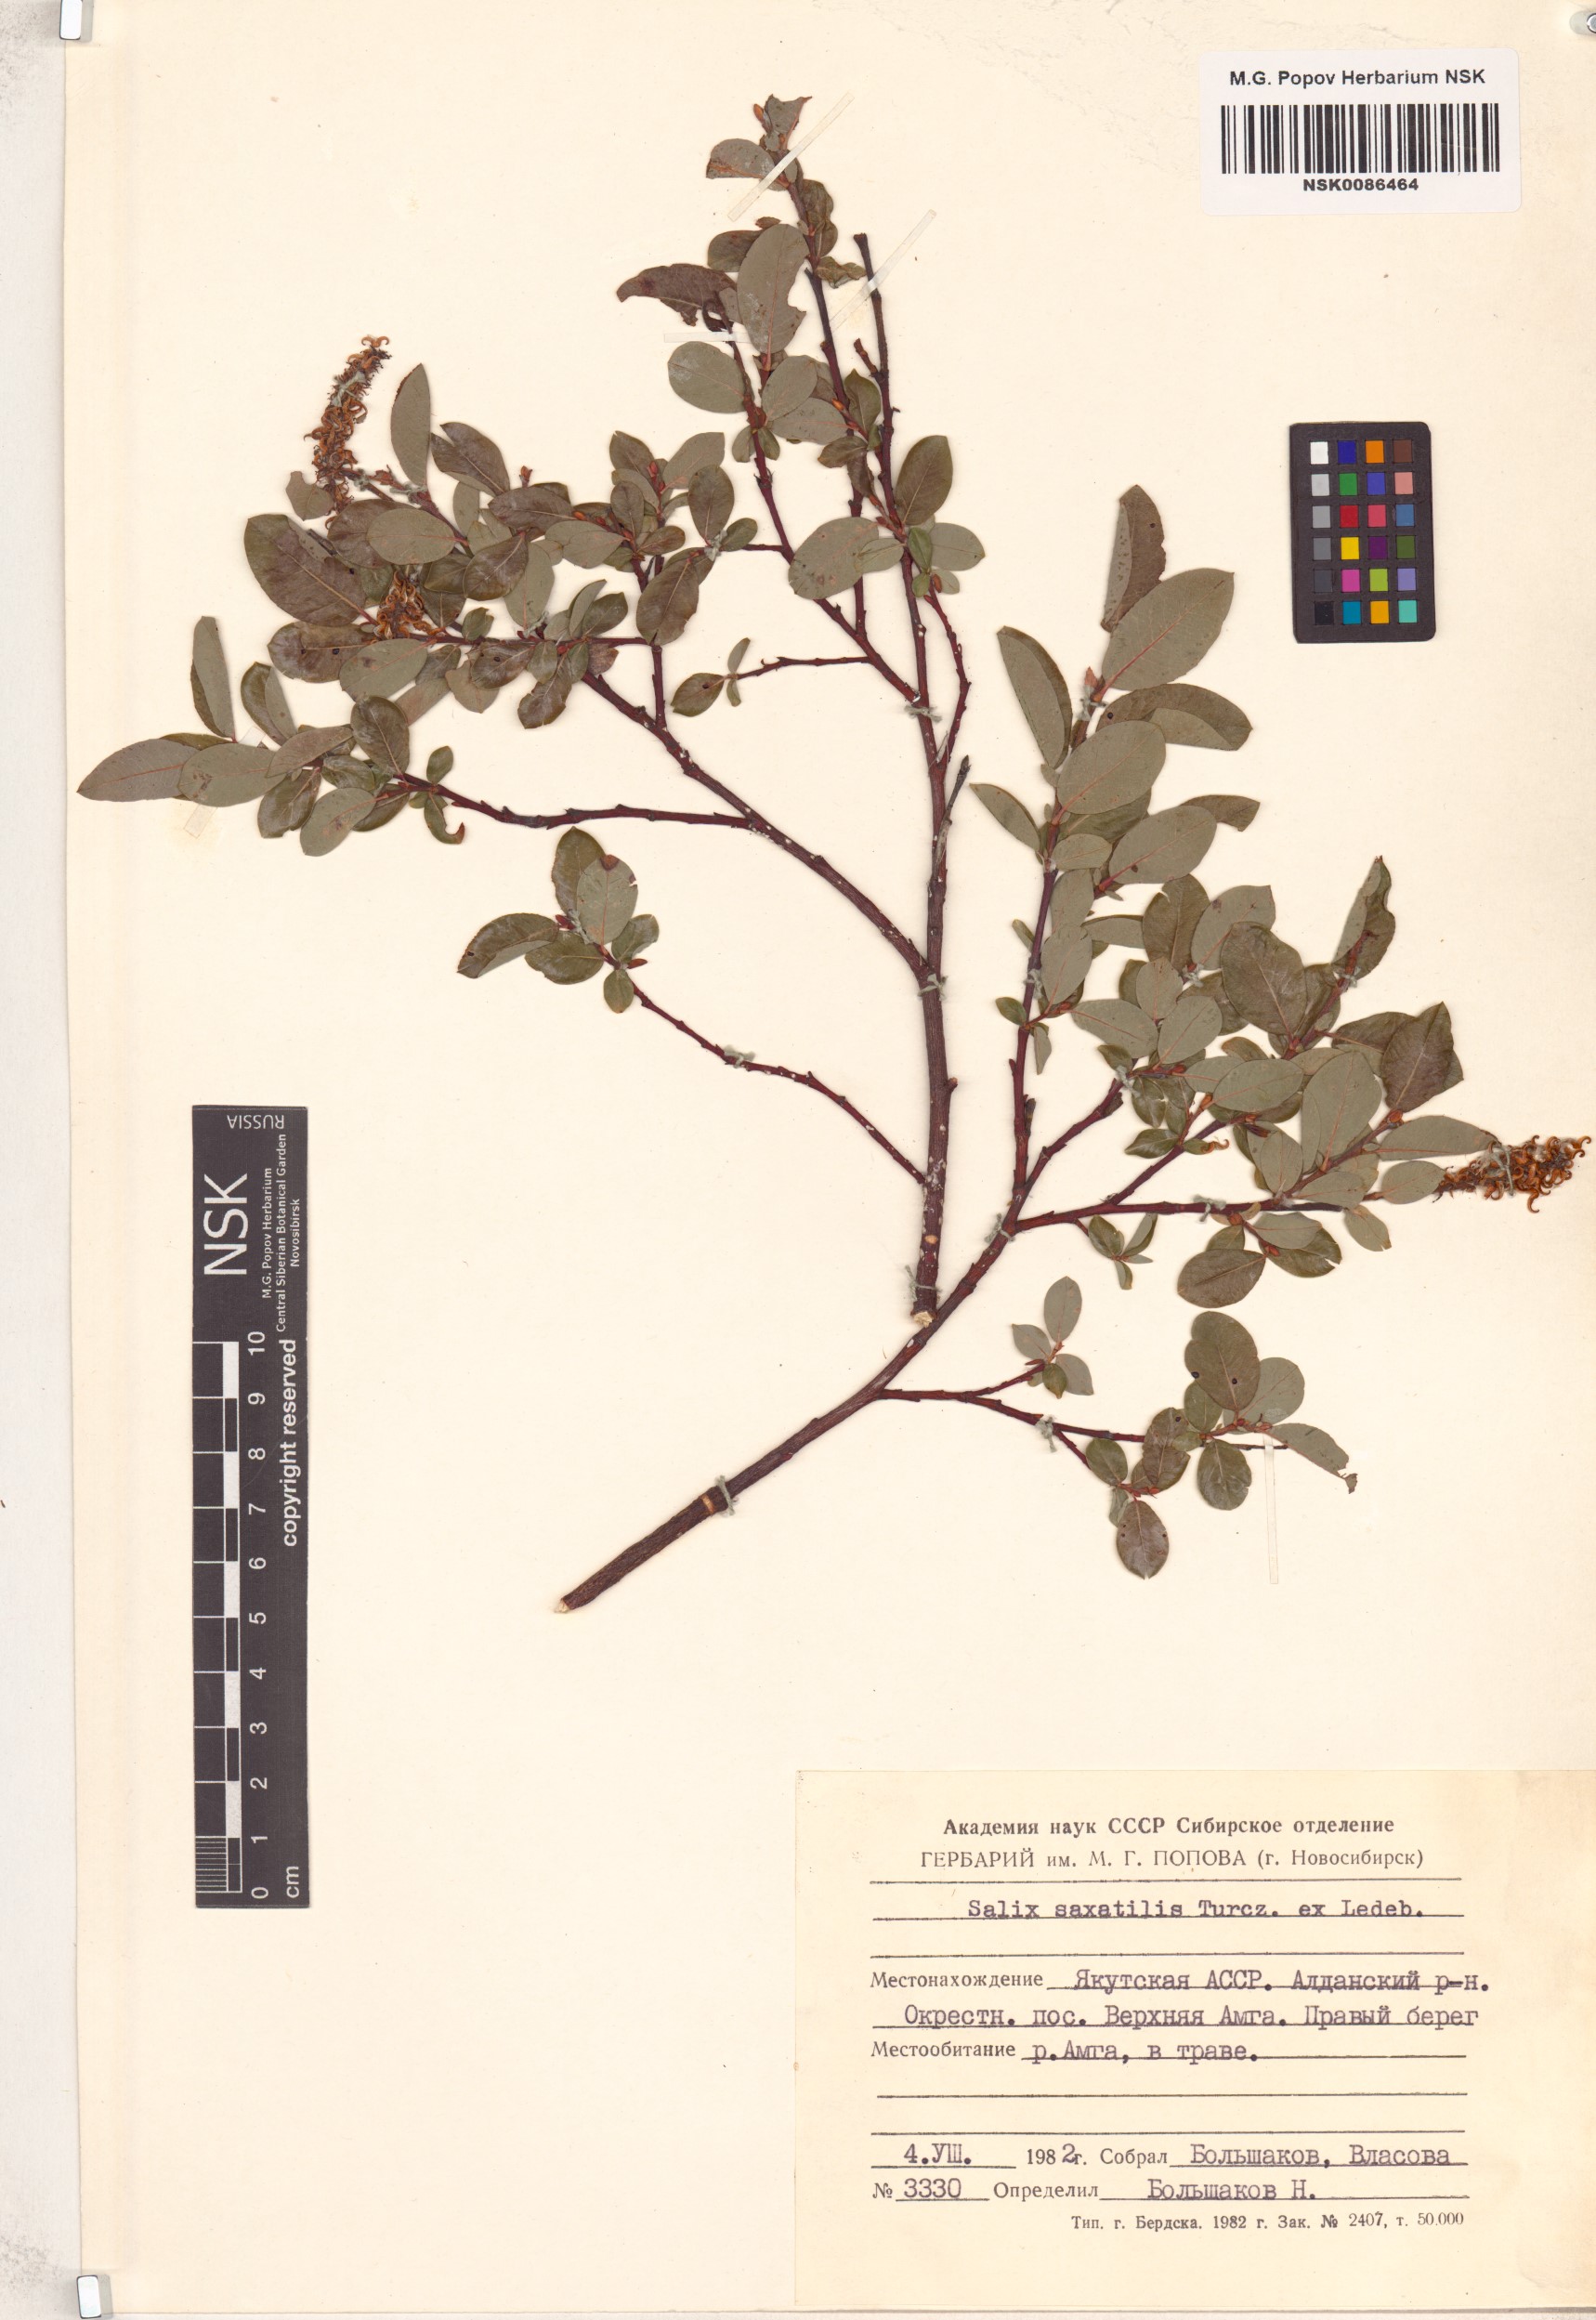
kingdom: Plantae
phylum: Tracheophyta
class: Magnoliopsida
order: Malpighiales
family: Salicaceae
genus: Salix
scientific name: Salix saxatilis
